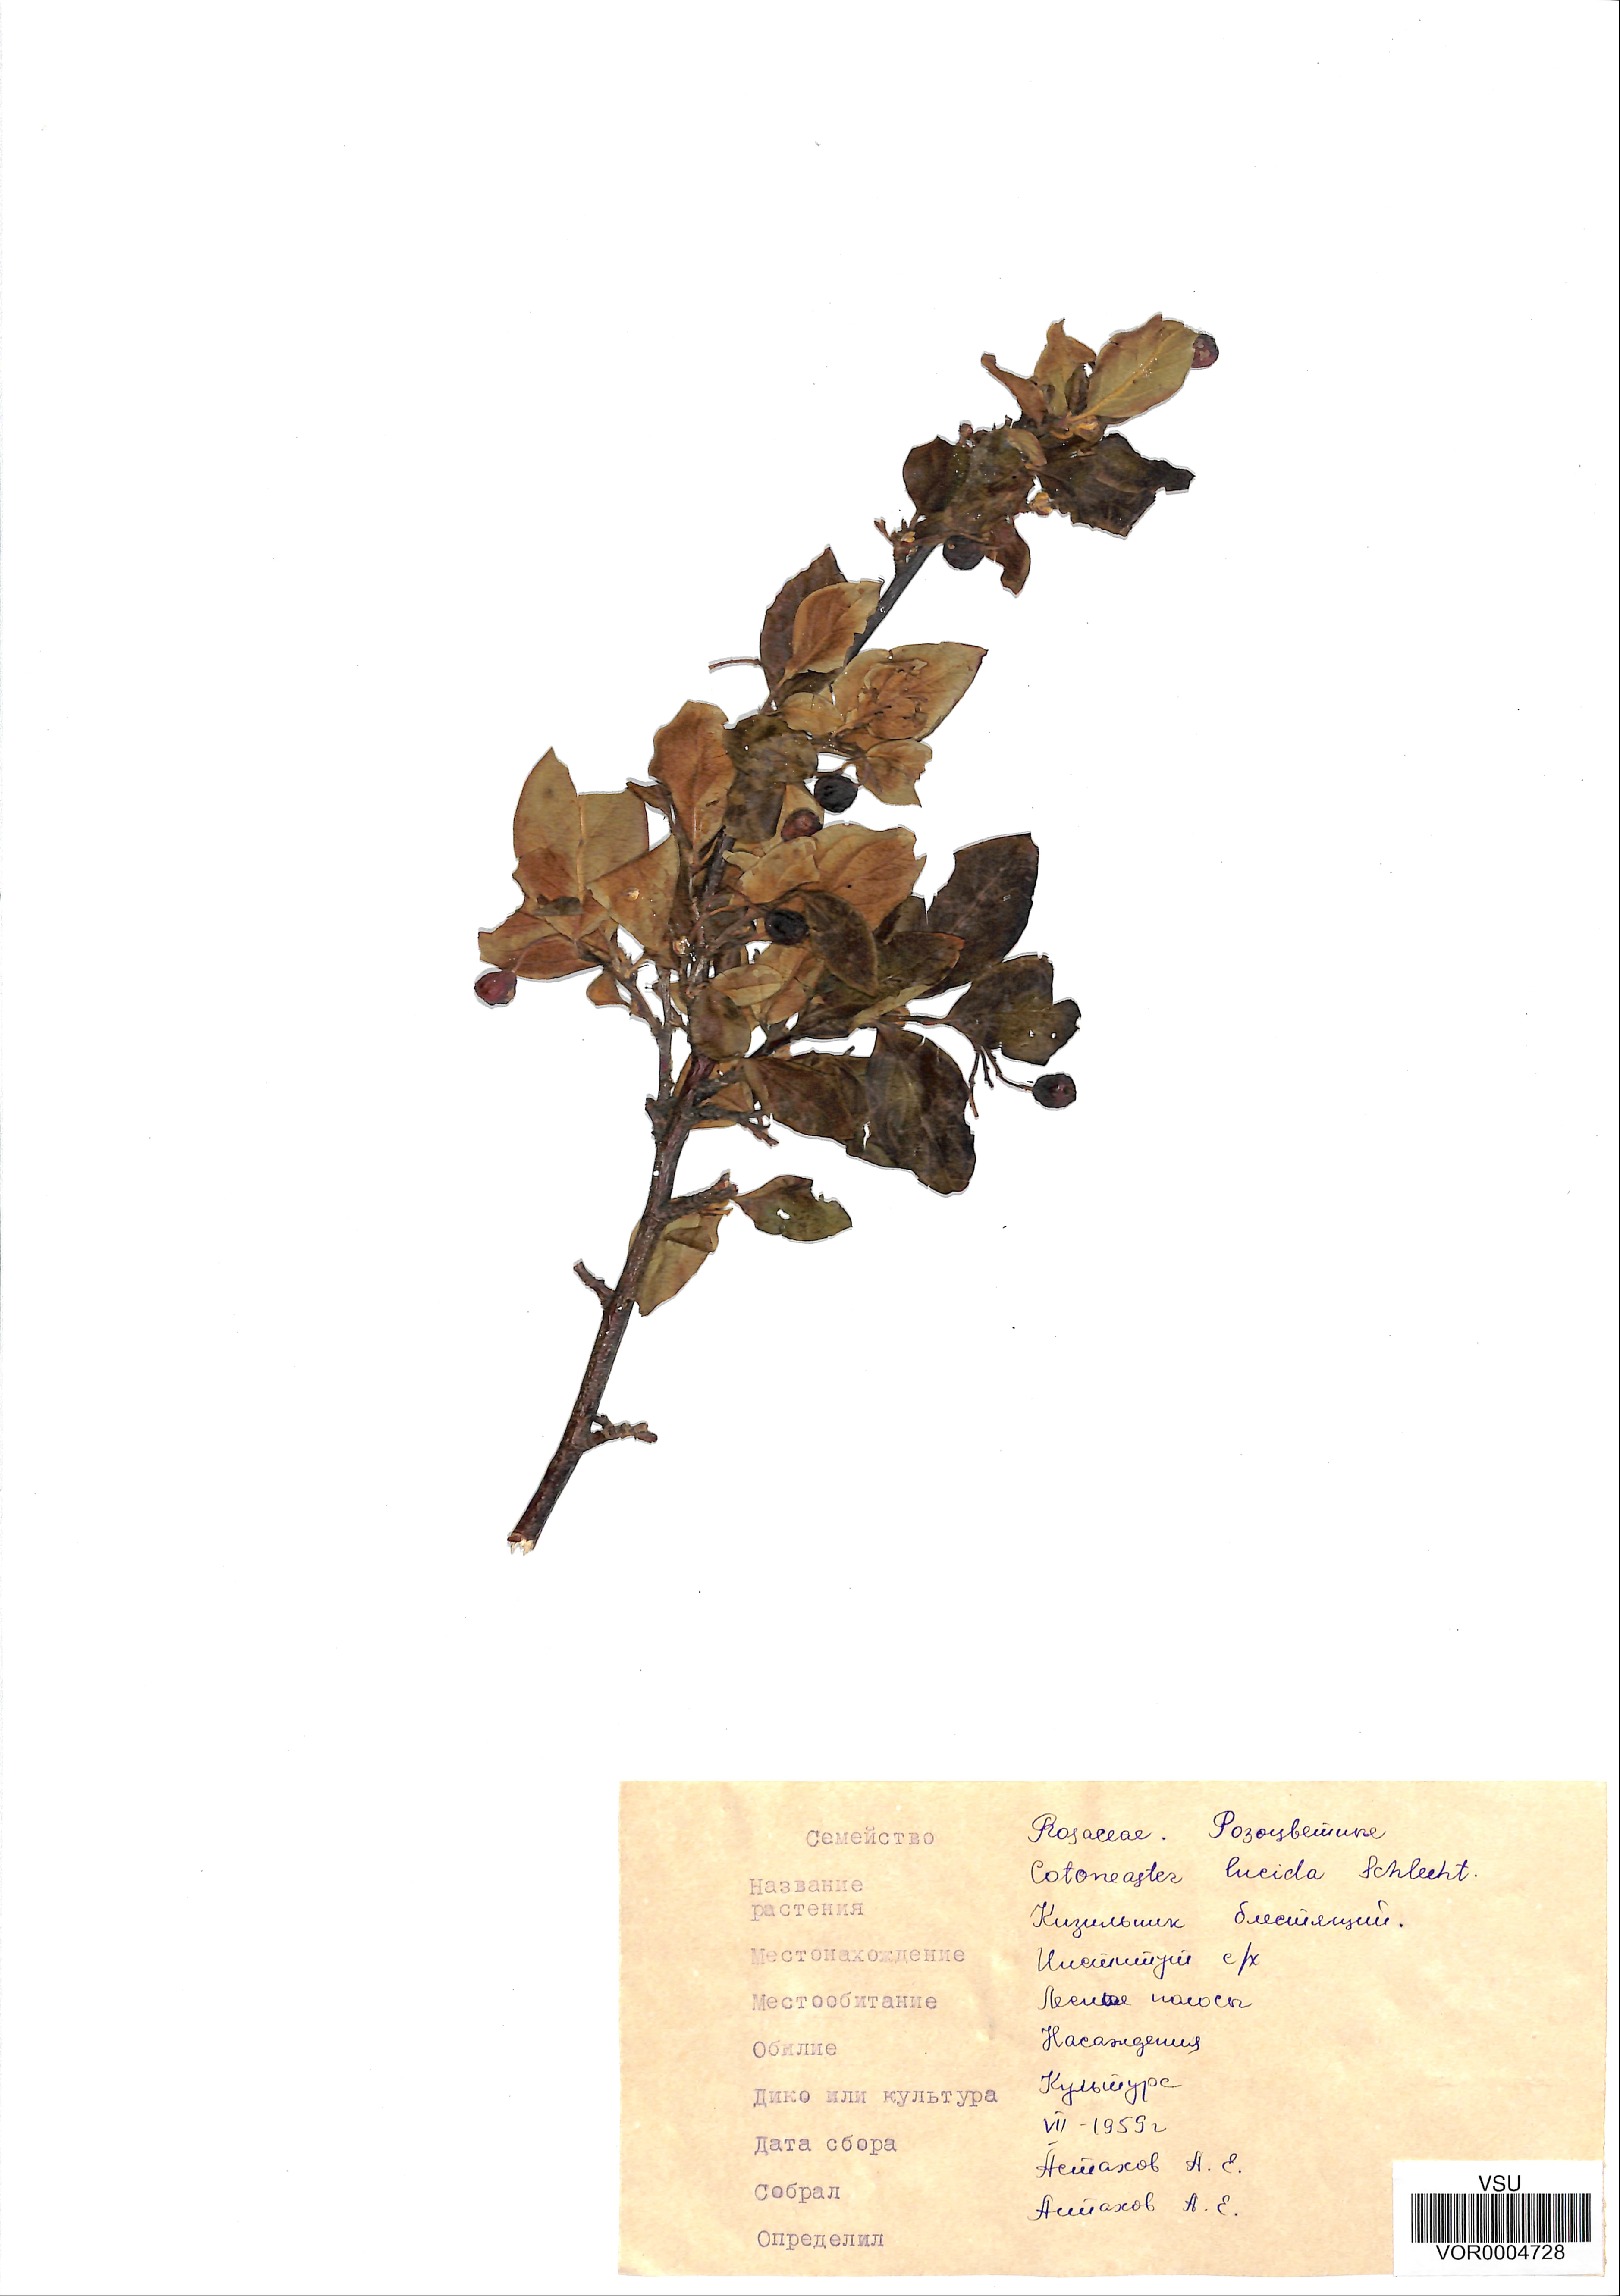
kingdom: Plantae
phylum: Tracheophyta
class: Magnoliopsida
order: Rosales
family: Rosaceae
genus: Cotoneaster
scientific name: Cotoneaster acutifolius
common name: Peking cotoneaster
